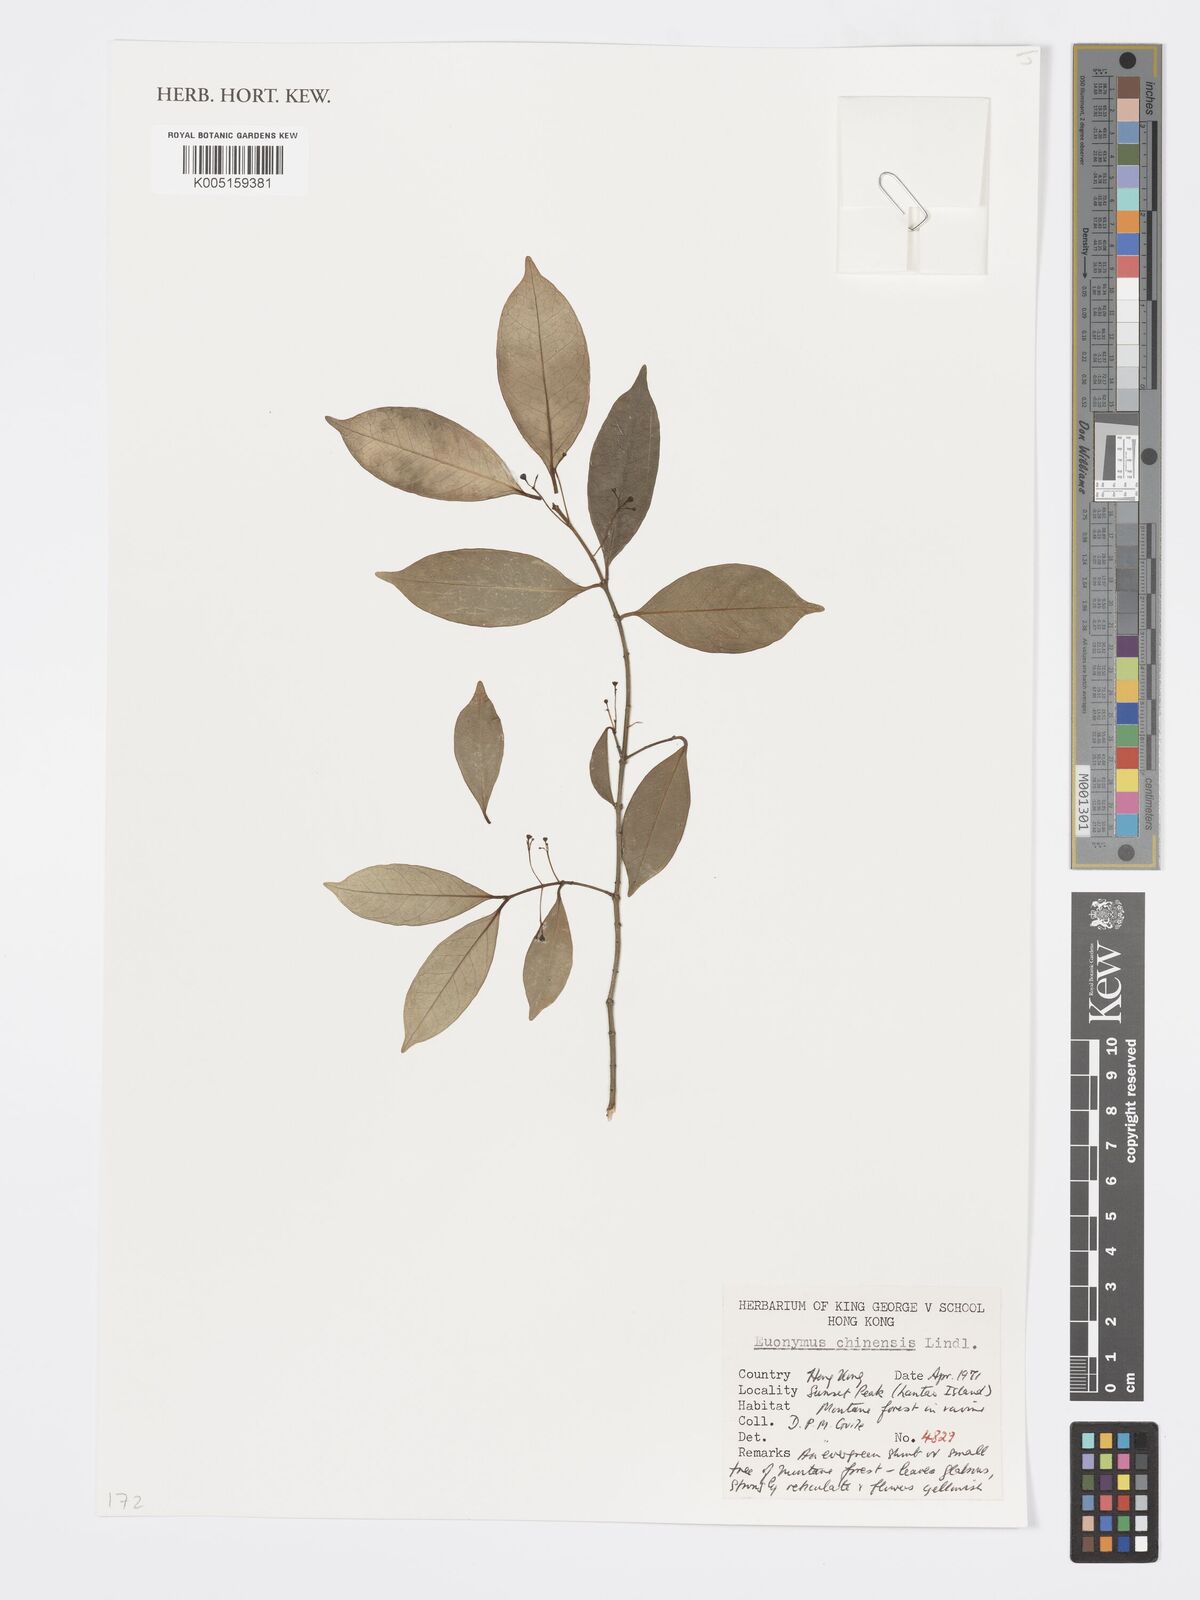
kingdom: Plantae
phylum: Tracheophyta
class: Magnoliopsida
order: Celastrales
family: Celastraceae
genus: Euonymus
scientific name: Euonymus nitidus
